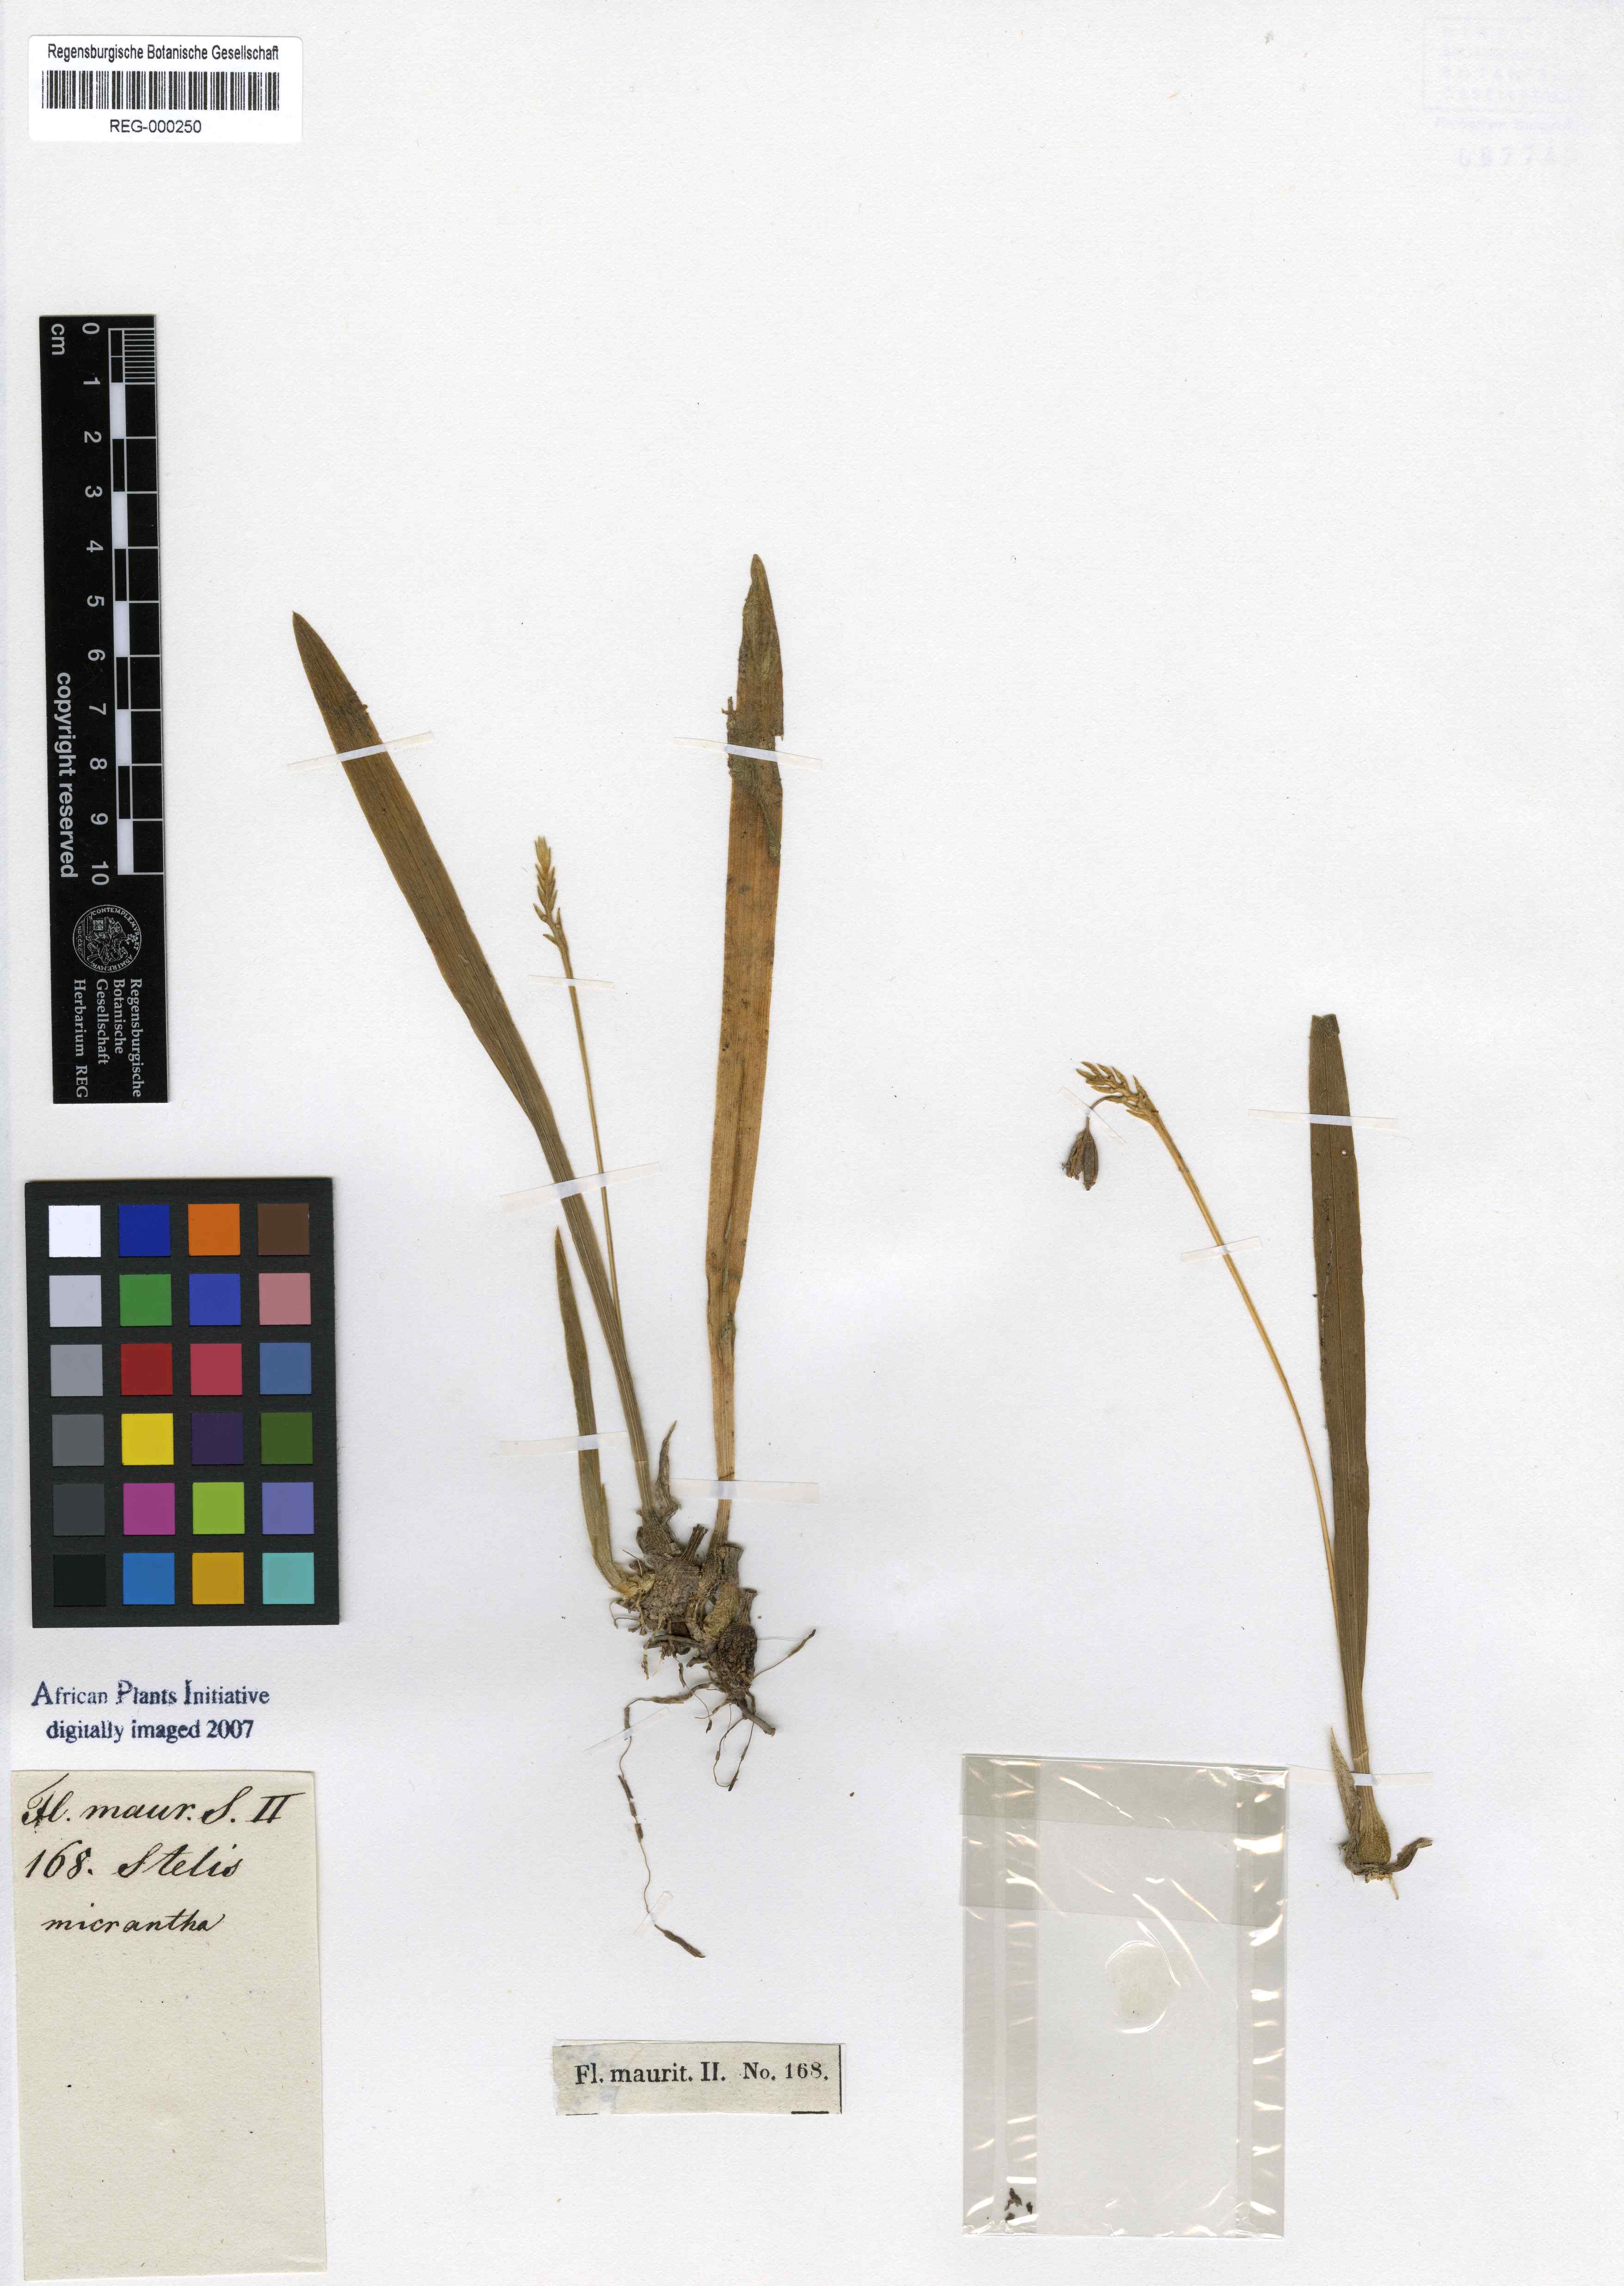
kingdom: Plantae
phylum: Tracheophyta
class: Liliopsida
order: Asparagales
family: Orchidaceae
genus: Stelis
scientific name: Stelis aprica
